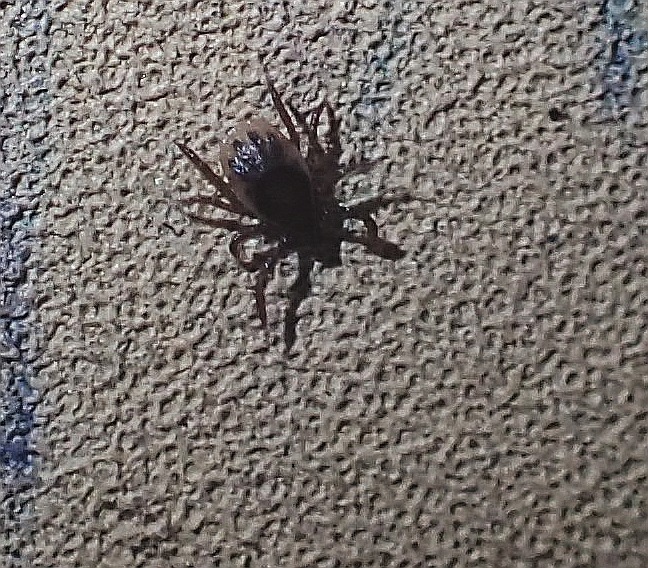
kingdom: Animalia
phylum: Arthropoda
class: Arachnida
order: Ixodida
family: Ixodidae
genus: Ixodes
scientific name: Ixodes ricinus
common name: Skovflåt
